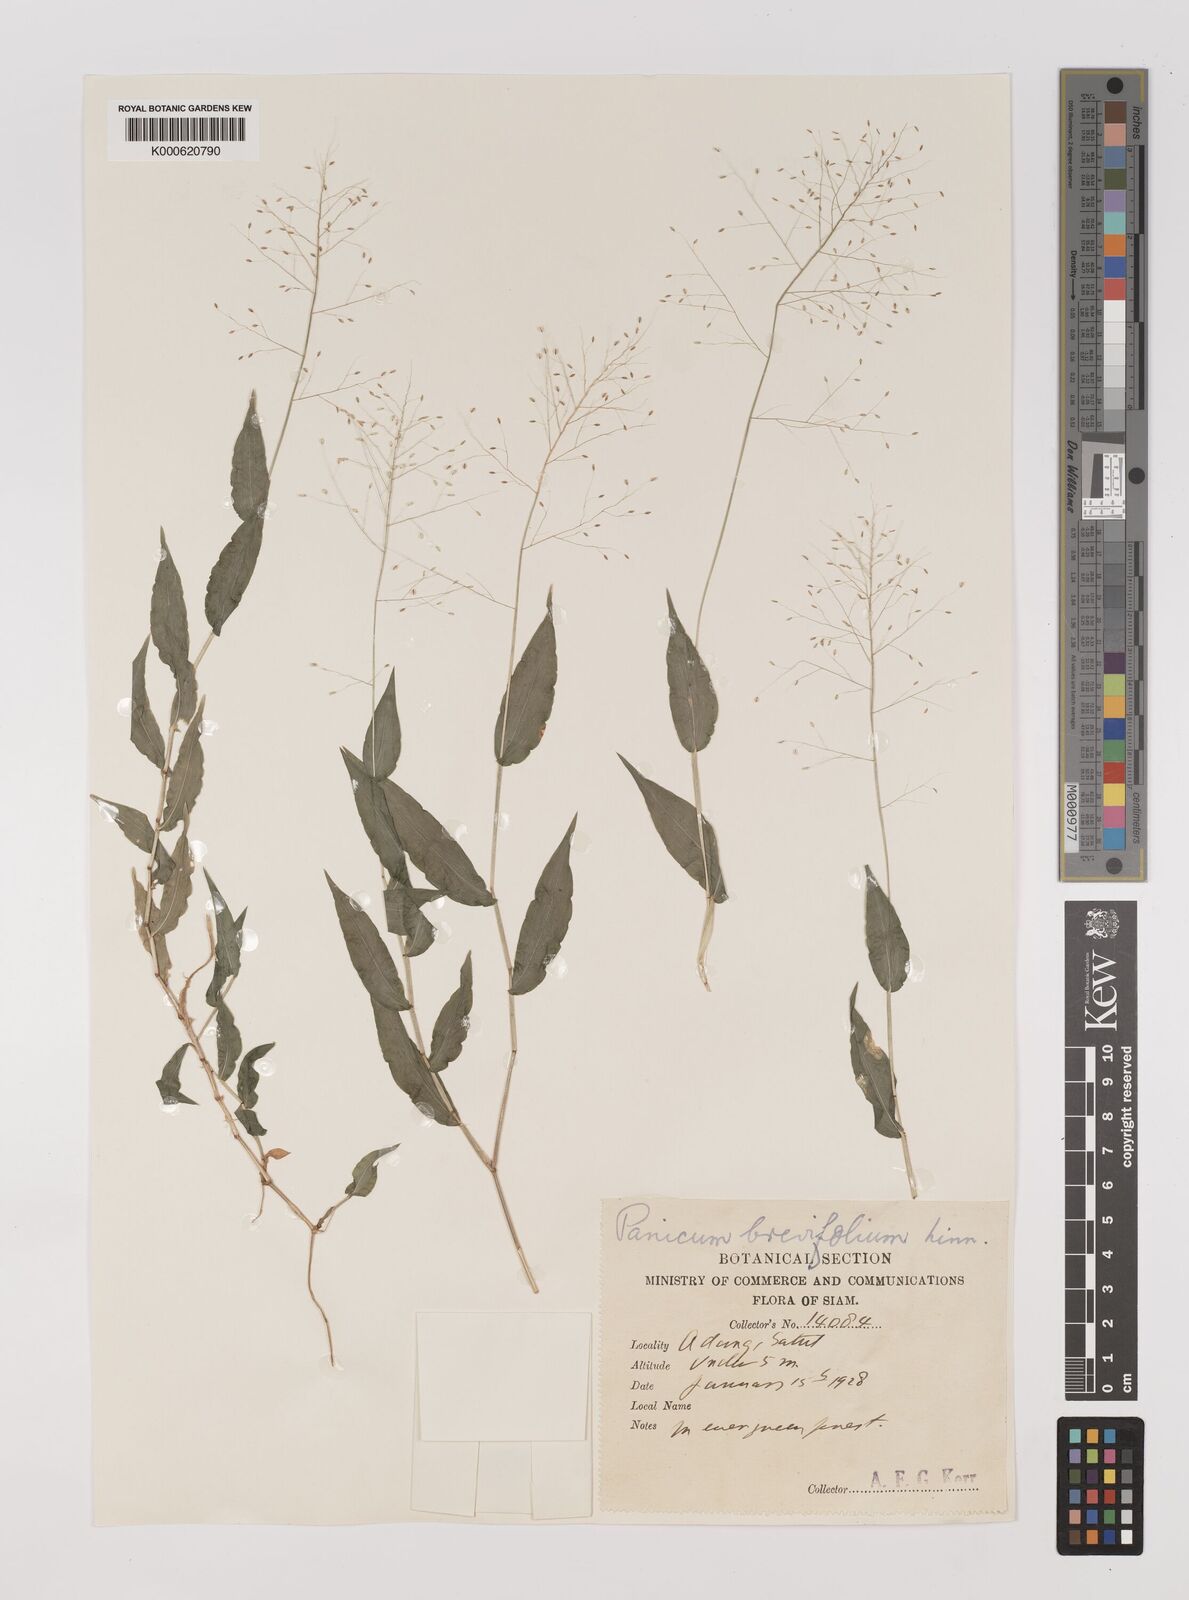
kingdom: Plantae
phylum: Tracheophyta
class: Liliopsida
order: Poales
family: Poaceae
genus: Panicum
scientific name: Panicum brevifolium
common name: Shortleaf panic grass
